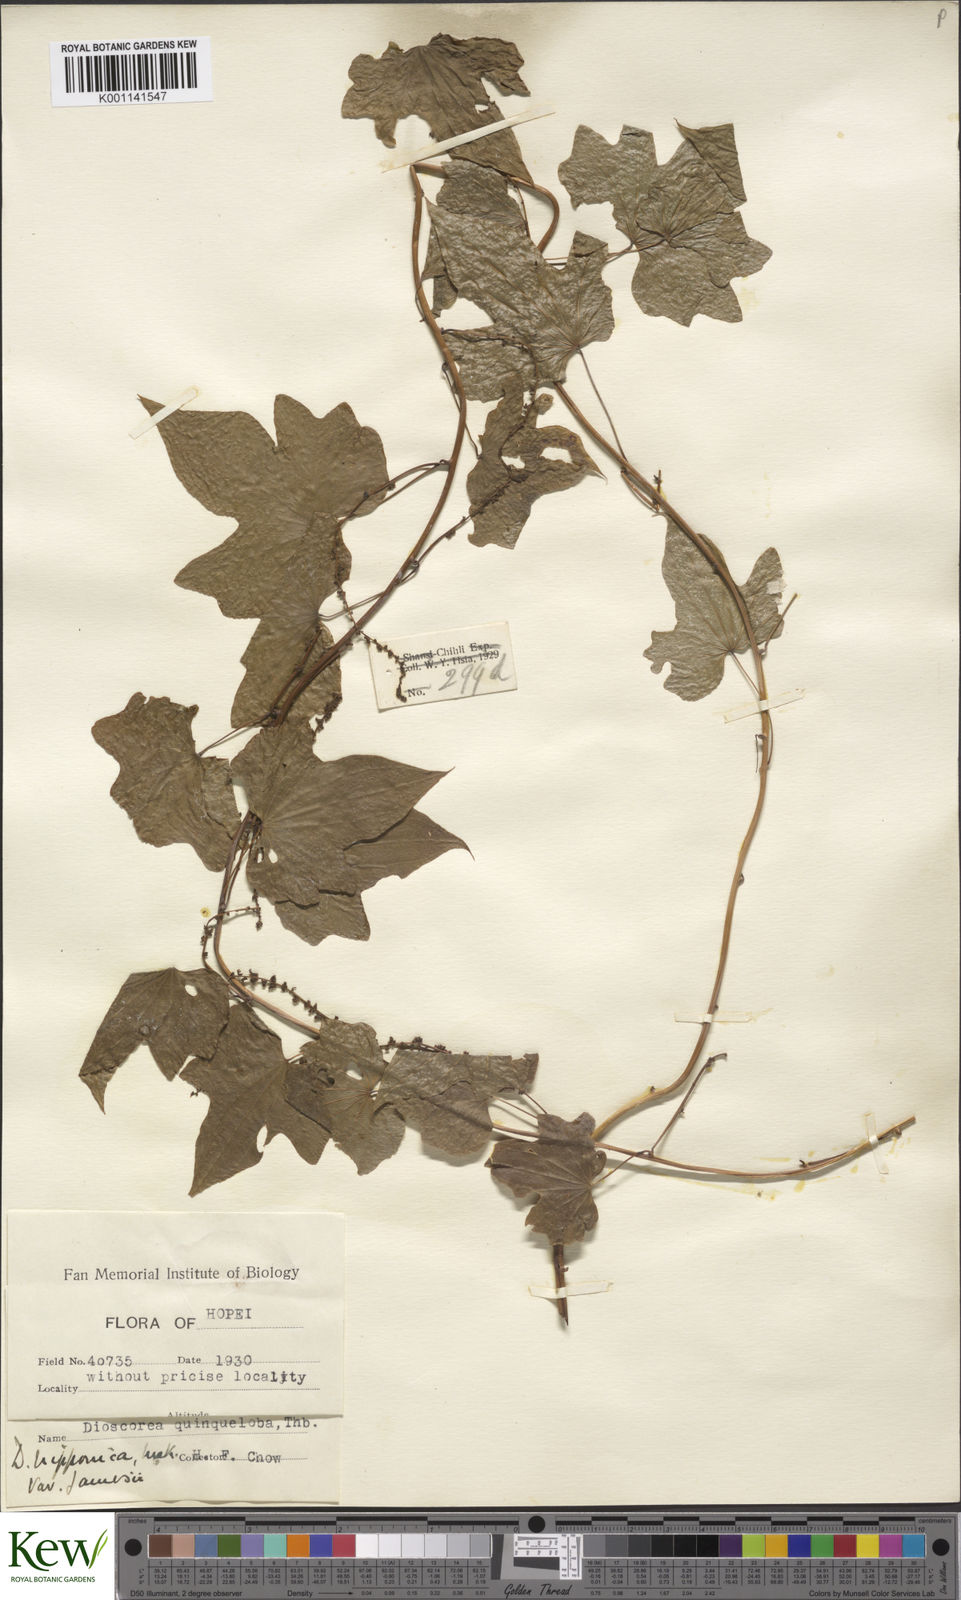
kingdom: Plantae
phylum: Tracheophyta
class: Liliopsida
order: Dioscoreales
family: Dioscoreaceae
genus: Dioscorea
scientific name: Dioscorea nipponica
